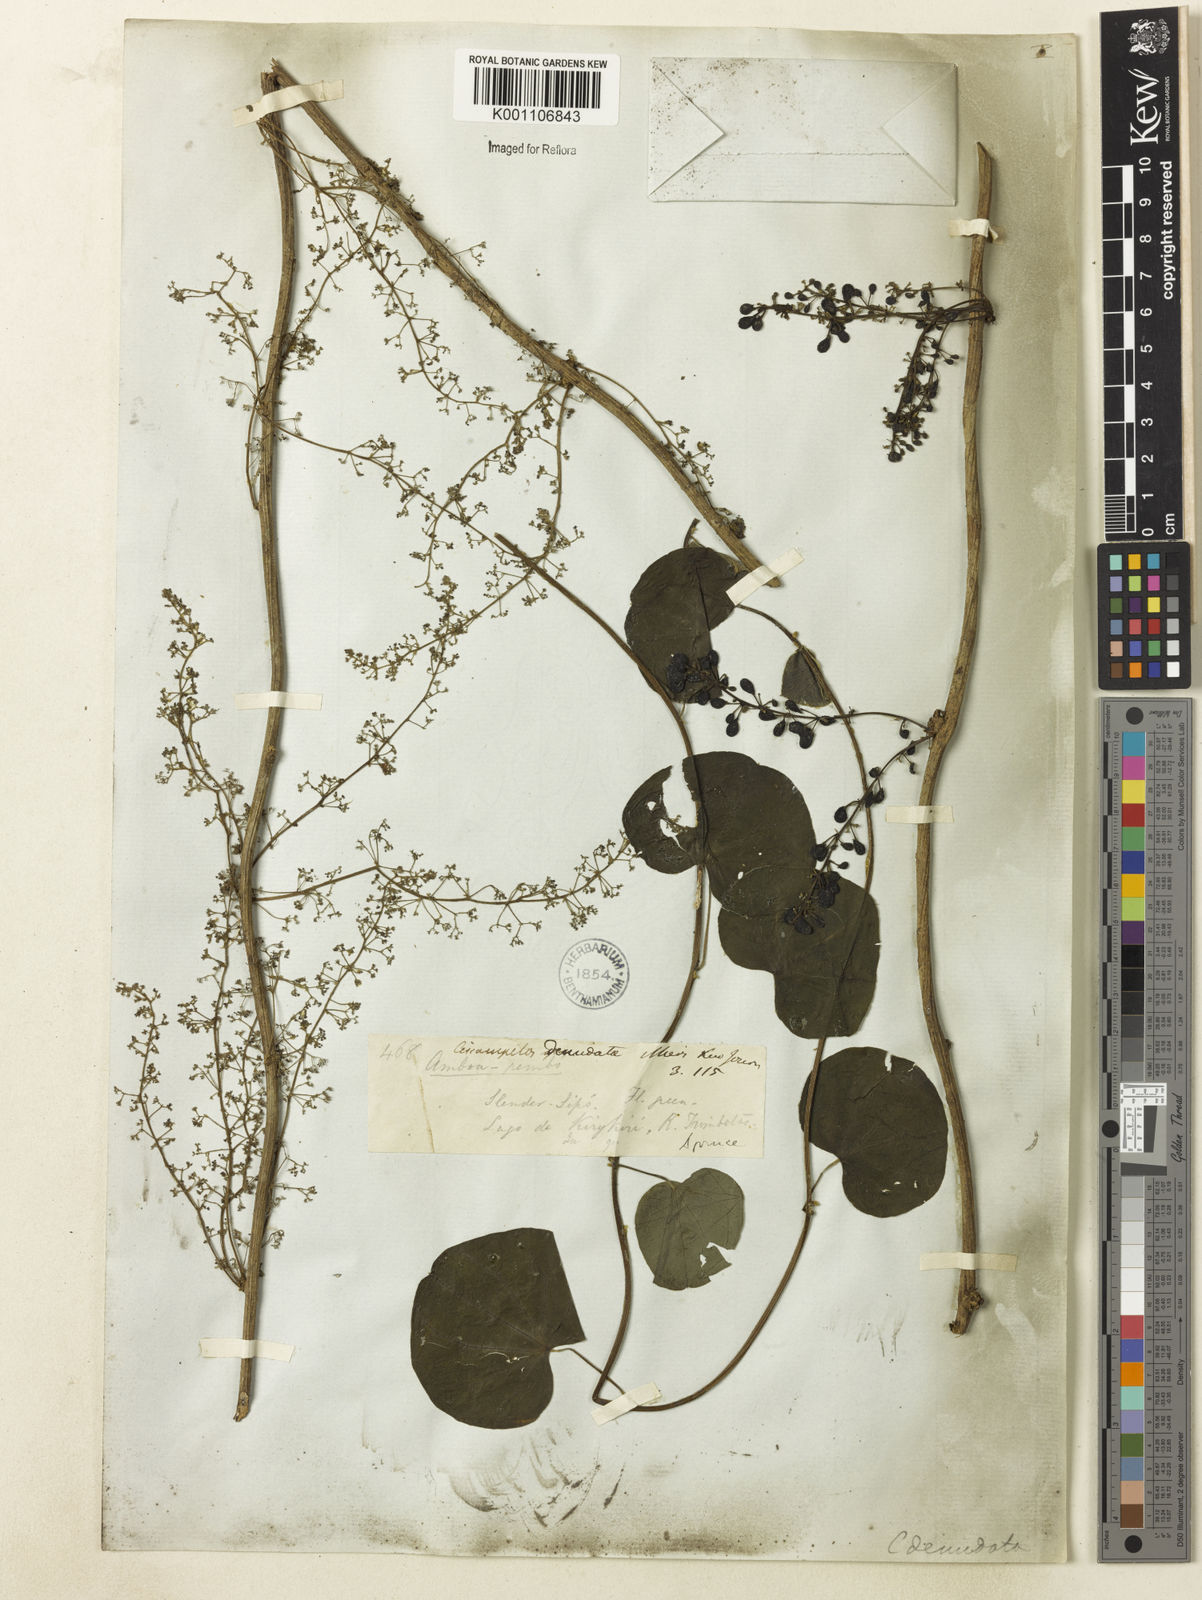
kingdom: Plantae
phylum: Tracheophyta
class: Magnoliopsida
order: Ranunculales
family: Menispermaceae
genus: Cissampelos
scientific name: Cissampelos andromorpha
